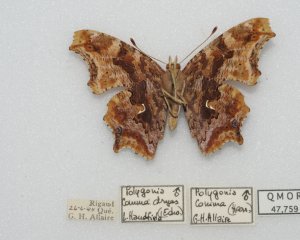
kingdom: Animalia
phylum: Arthropoda
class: Insecta
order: Lepidoptera
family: Nymphalidae
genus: Polygonia
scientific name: Polygonia comma
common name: Eastern Comma
